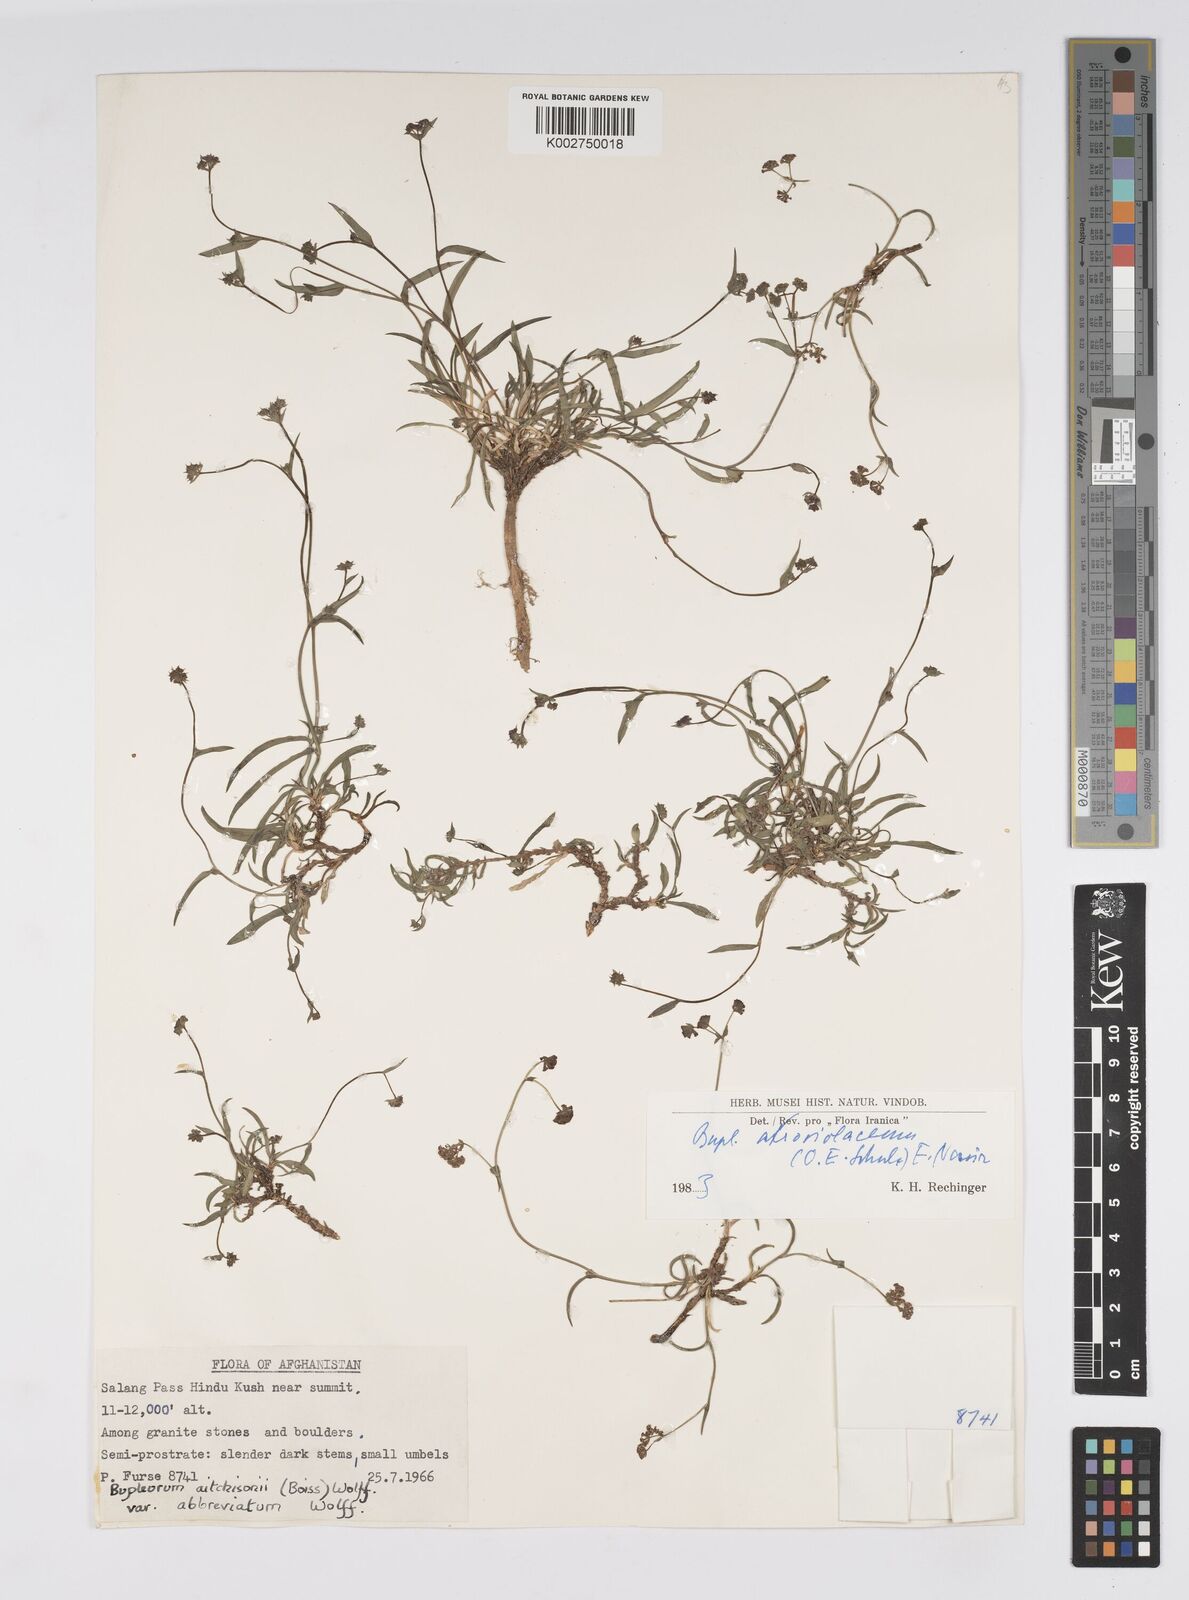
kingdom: Plantae
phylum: Tracheophyta
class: Magnoliopsida
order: Apiales
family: Apiaceae
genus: Bupleurum
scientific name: Bupleurum rupestre
